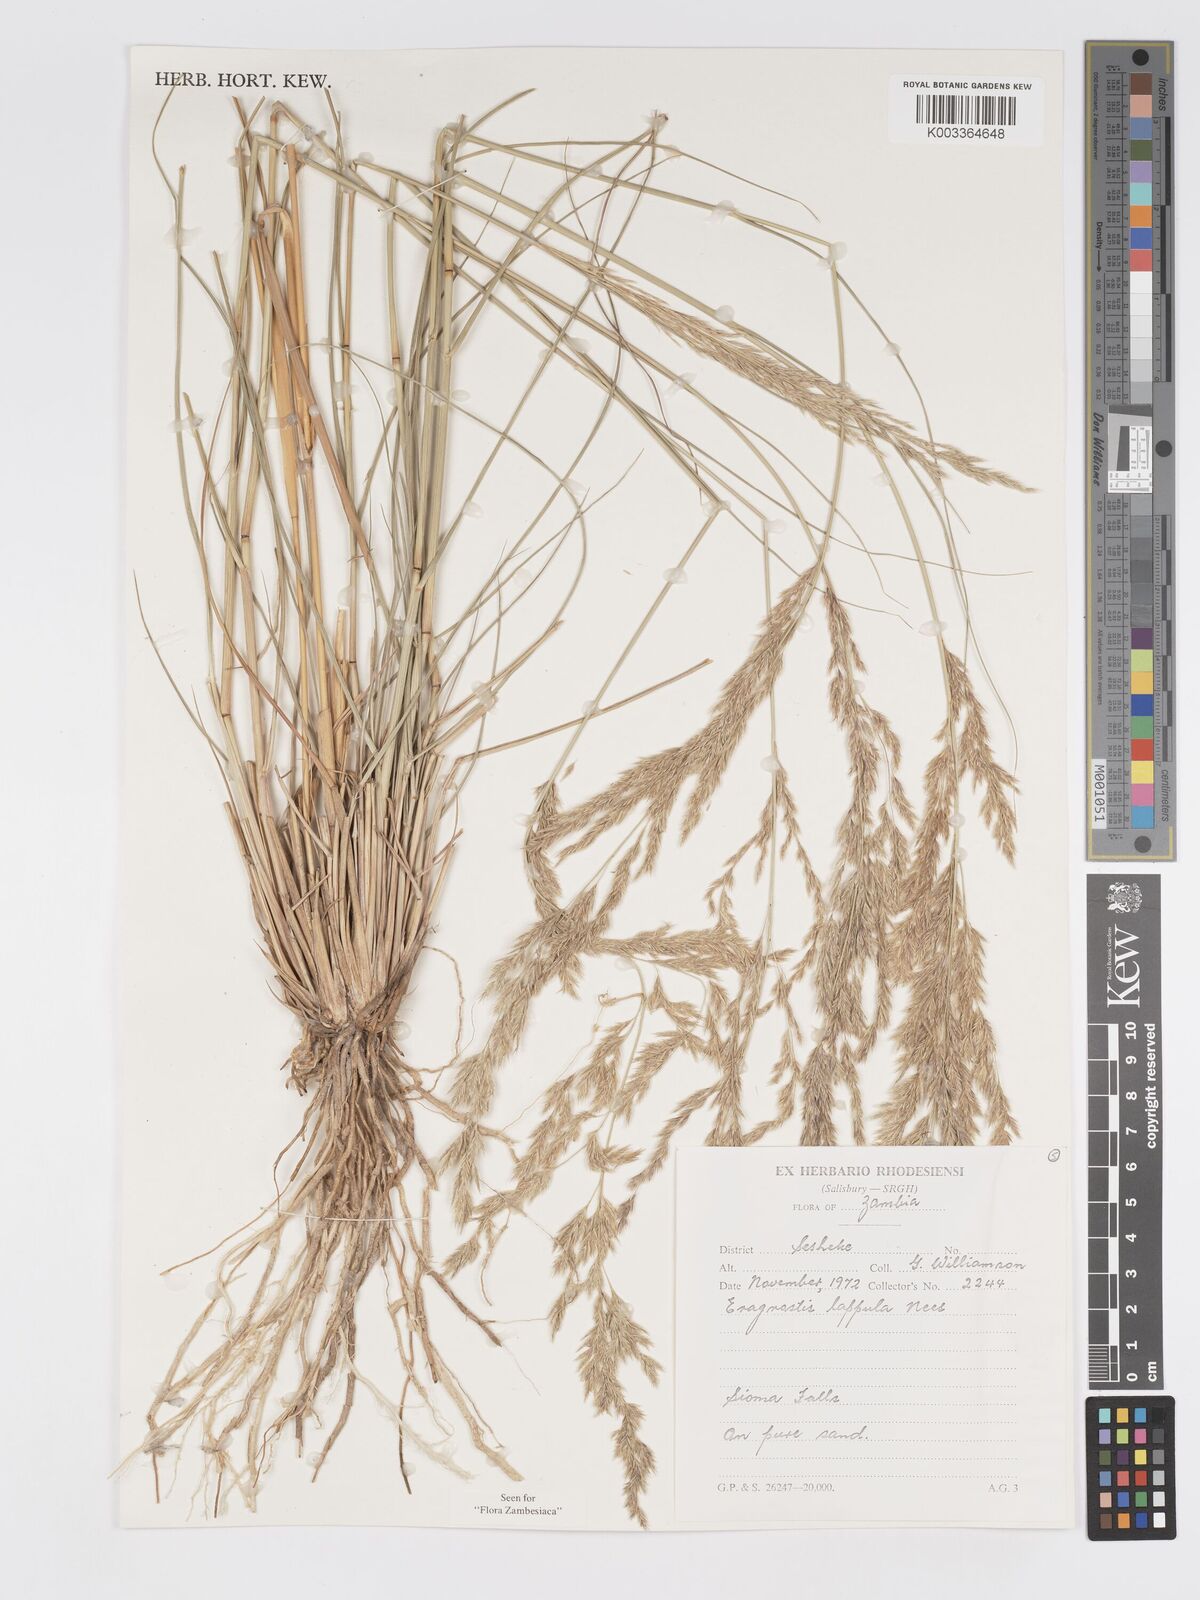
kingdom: Plantae
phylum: Tracheophyta
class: Liliopsida
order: Poales
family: Poaceae
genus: Eragrostis
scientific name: Eragrostis lappula
